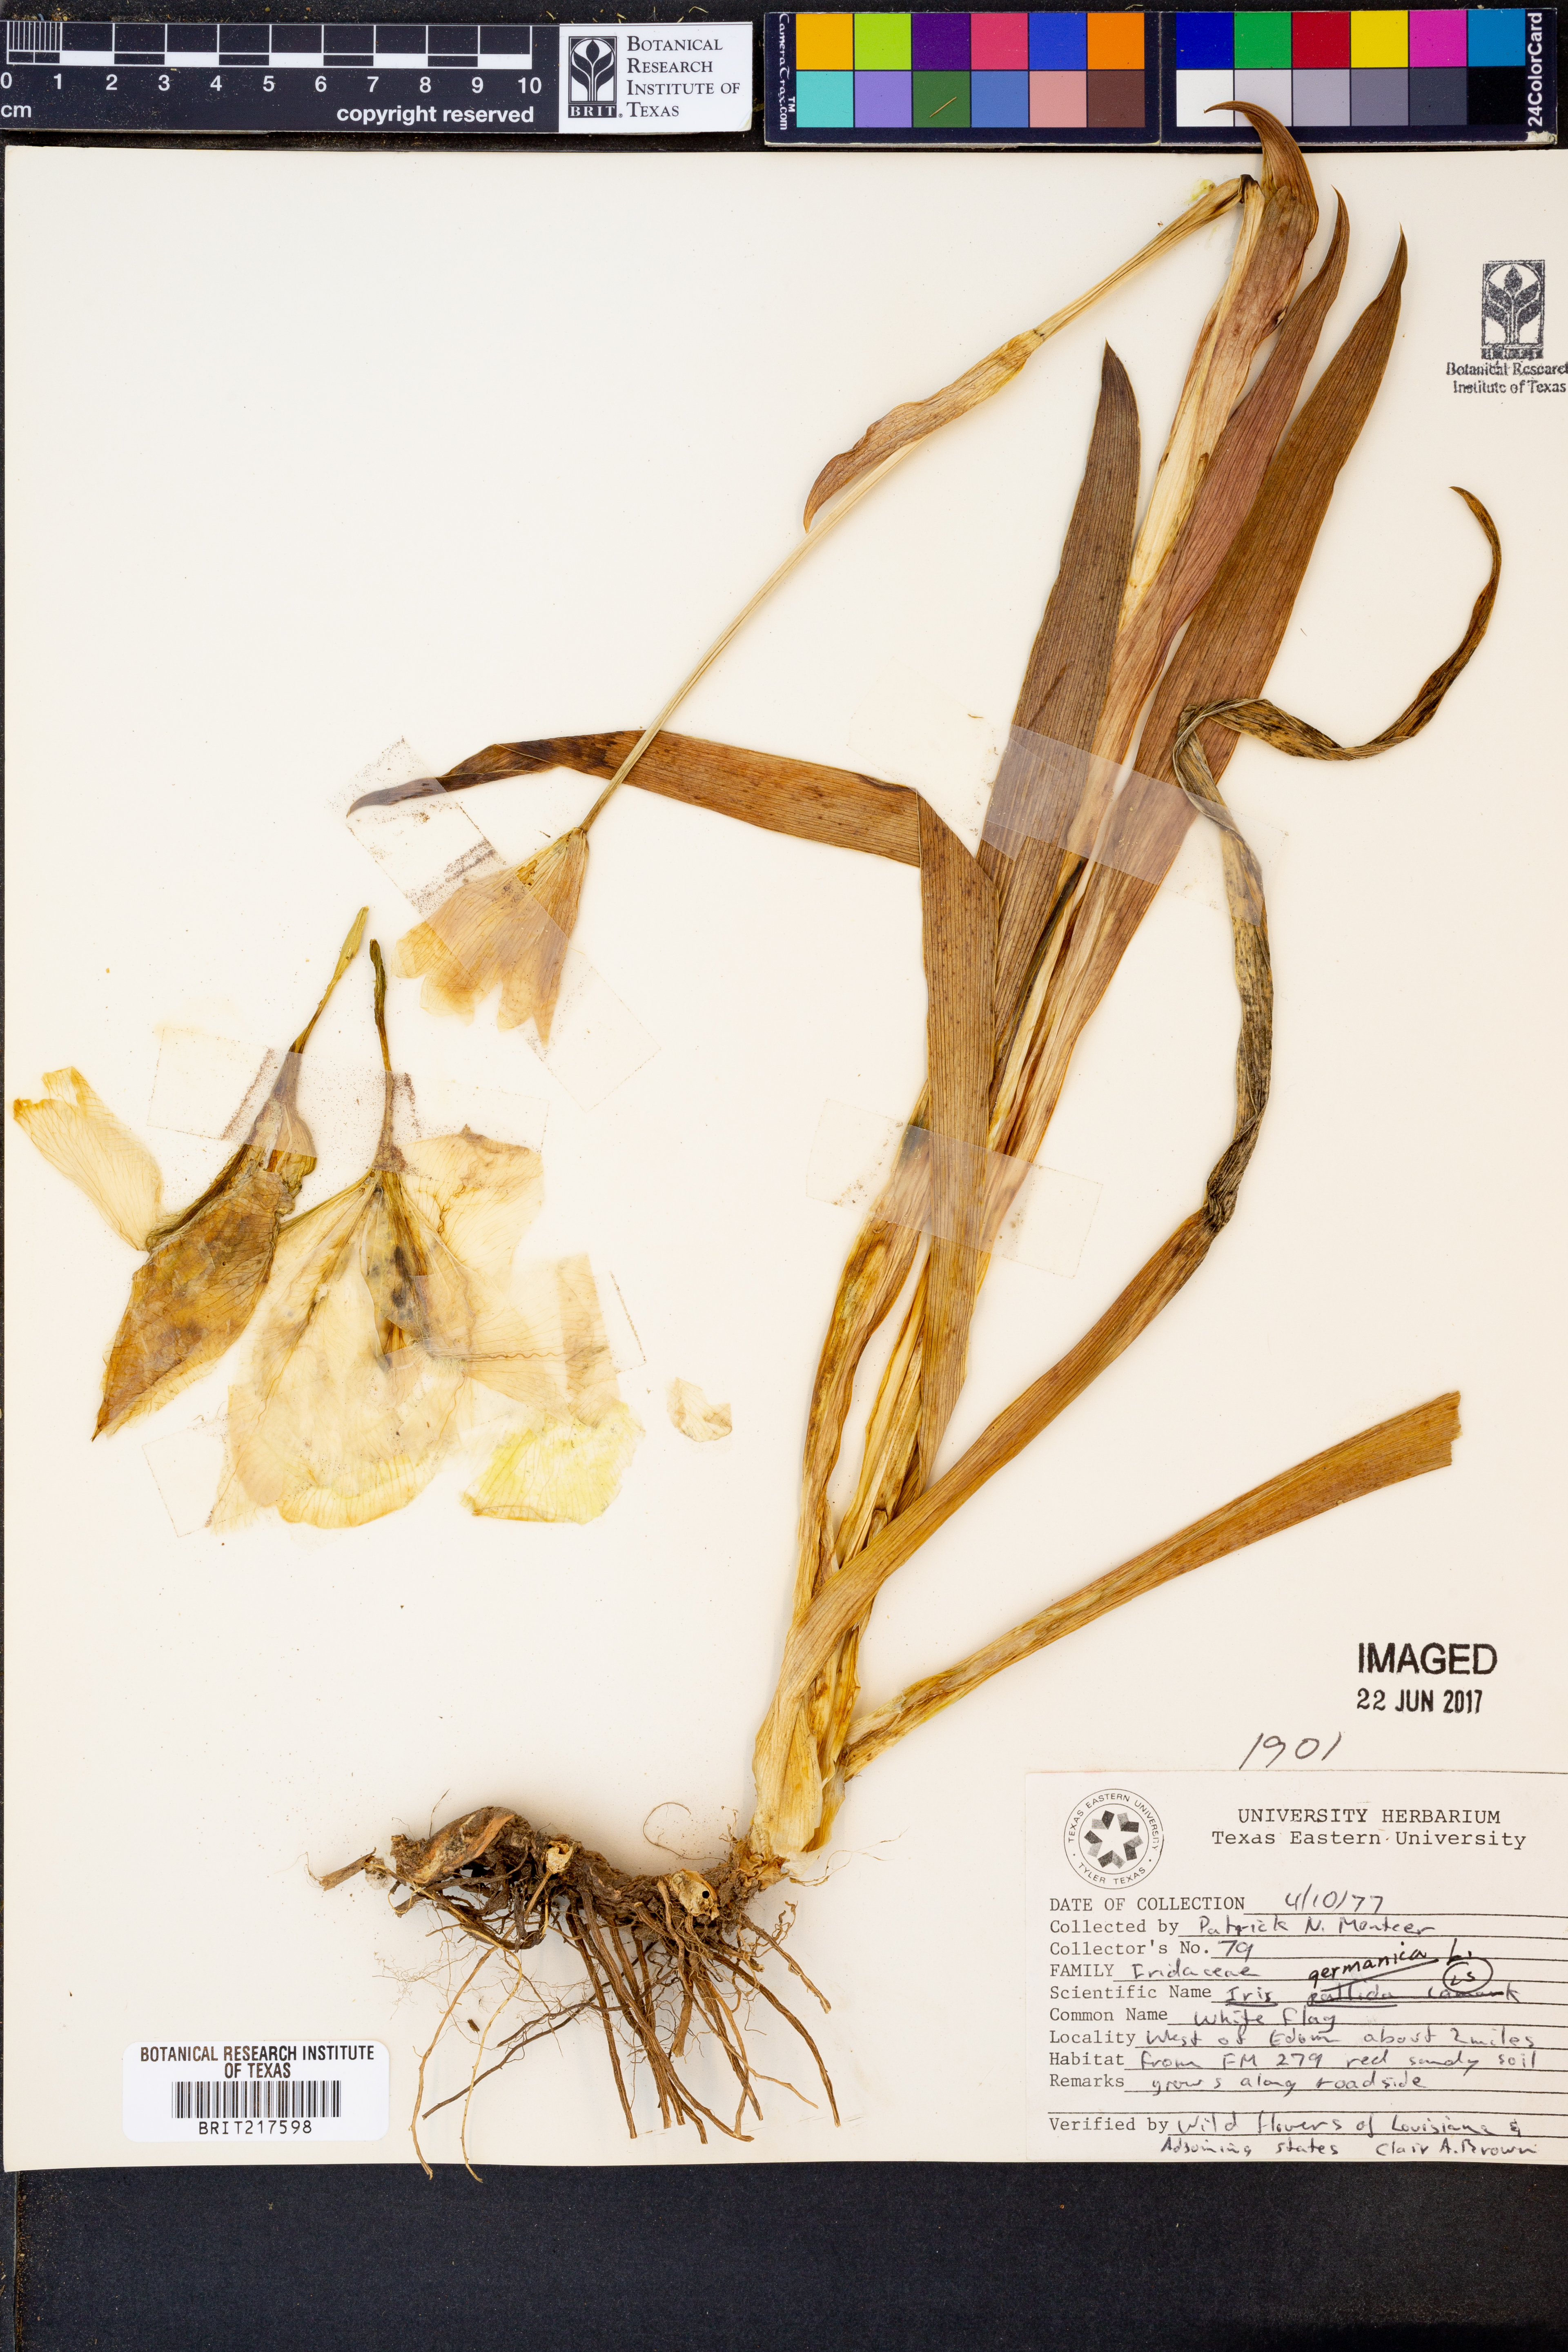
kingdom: Plantae
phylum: Tracheophyta
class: Liliopsida
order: Asparagales
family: Iridaceae
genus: Iris
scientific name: Iris germanica
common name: German iris
